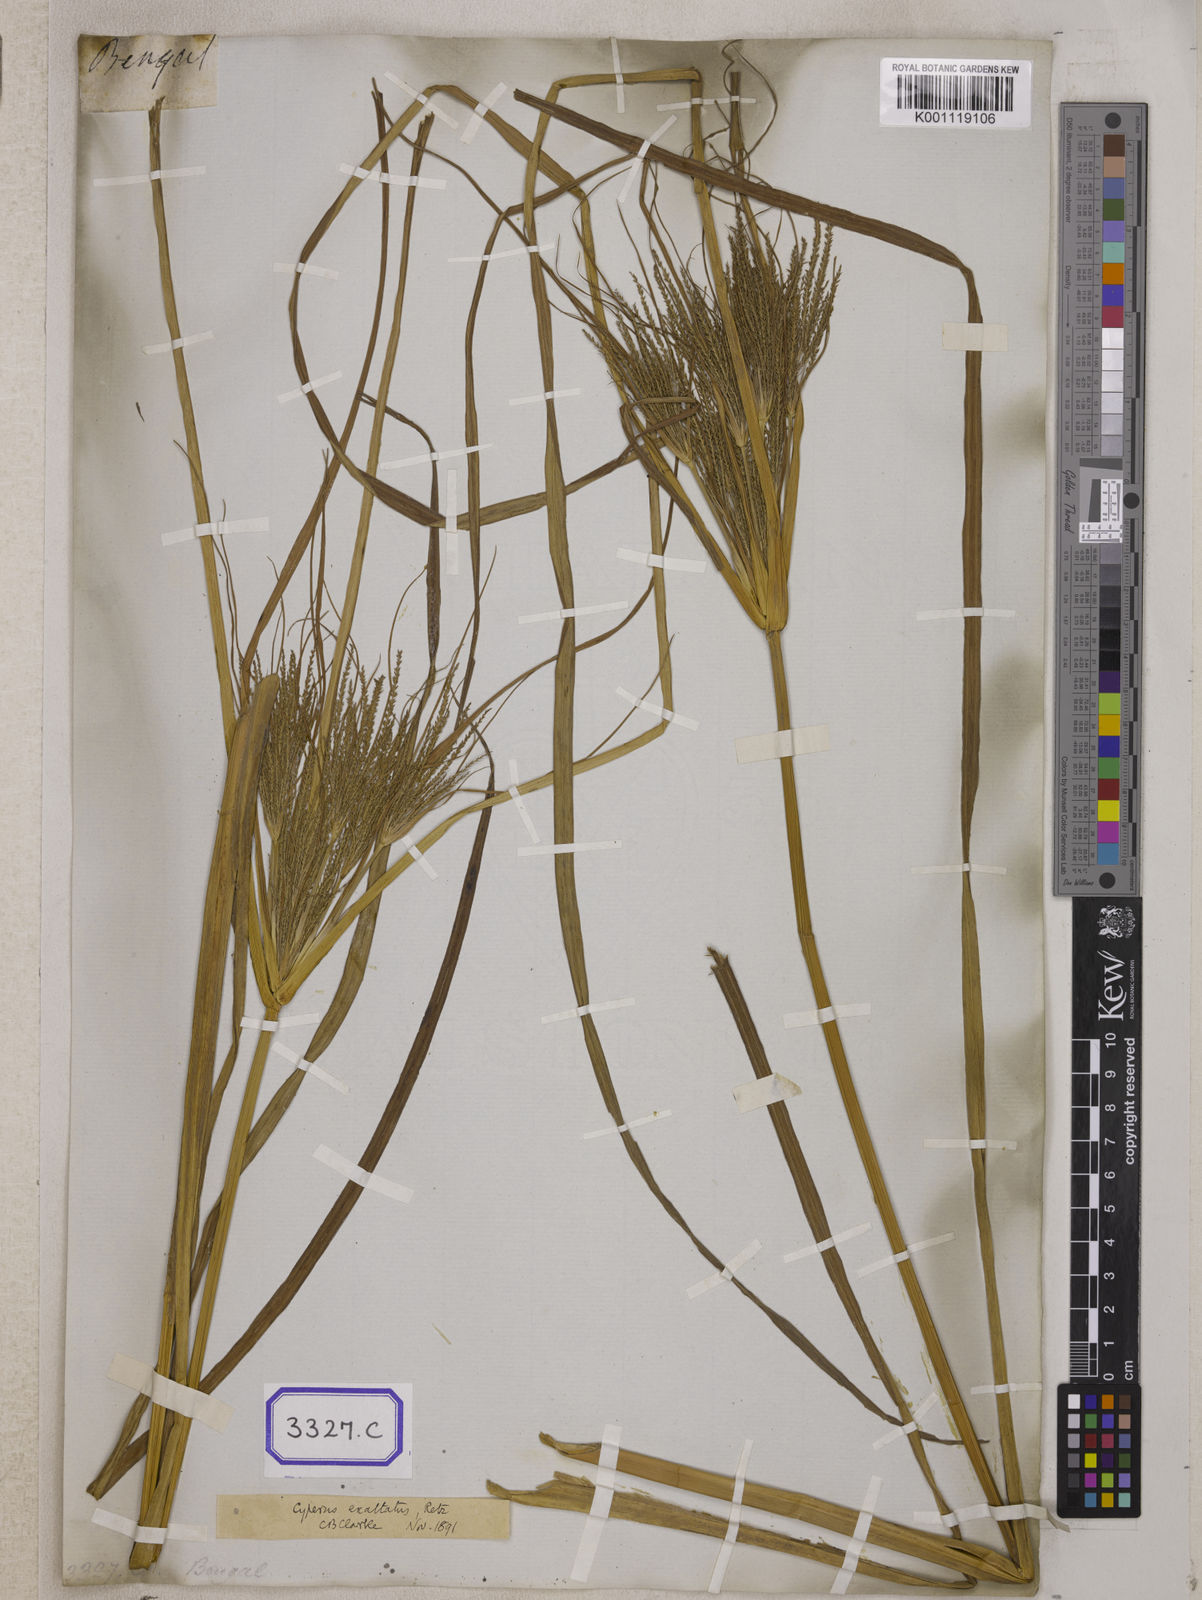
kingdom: Plantae
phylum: Tracheophyta
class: Liliopsida
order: Poales
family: Cyperaceae
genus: Cyperus
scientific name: Cyperus
